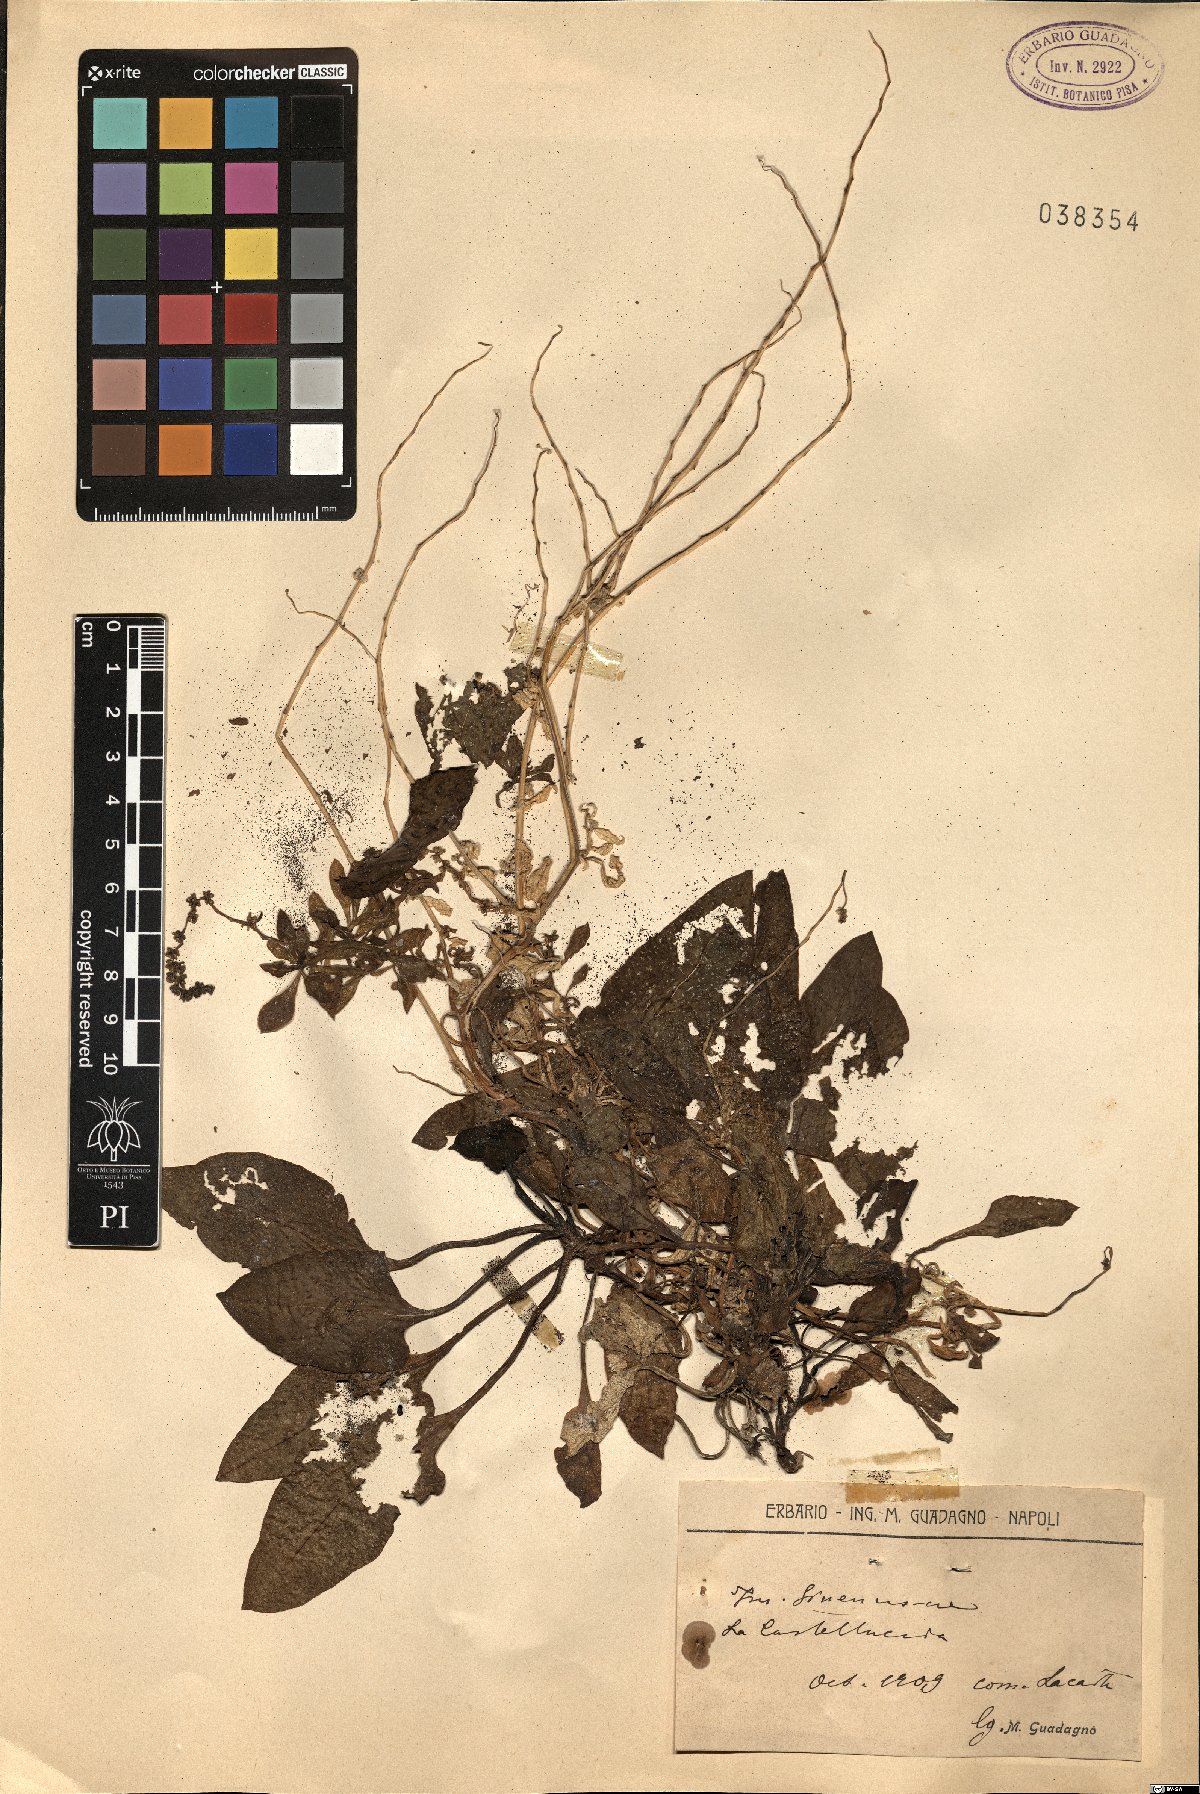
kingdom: Plantae
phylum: Tracheophyta
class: Magnoliopsida
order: Caryophyllales
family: Amaranthaceae
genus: Beta
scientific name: Beta
